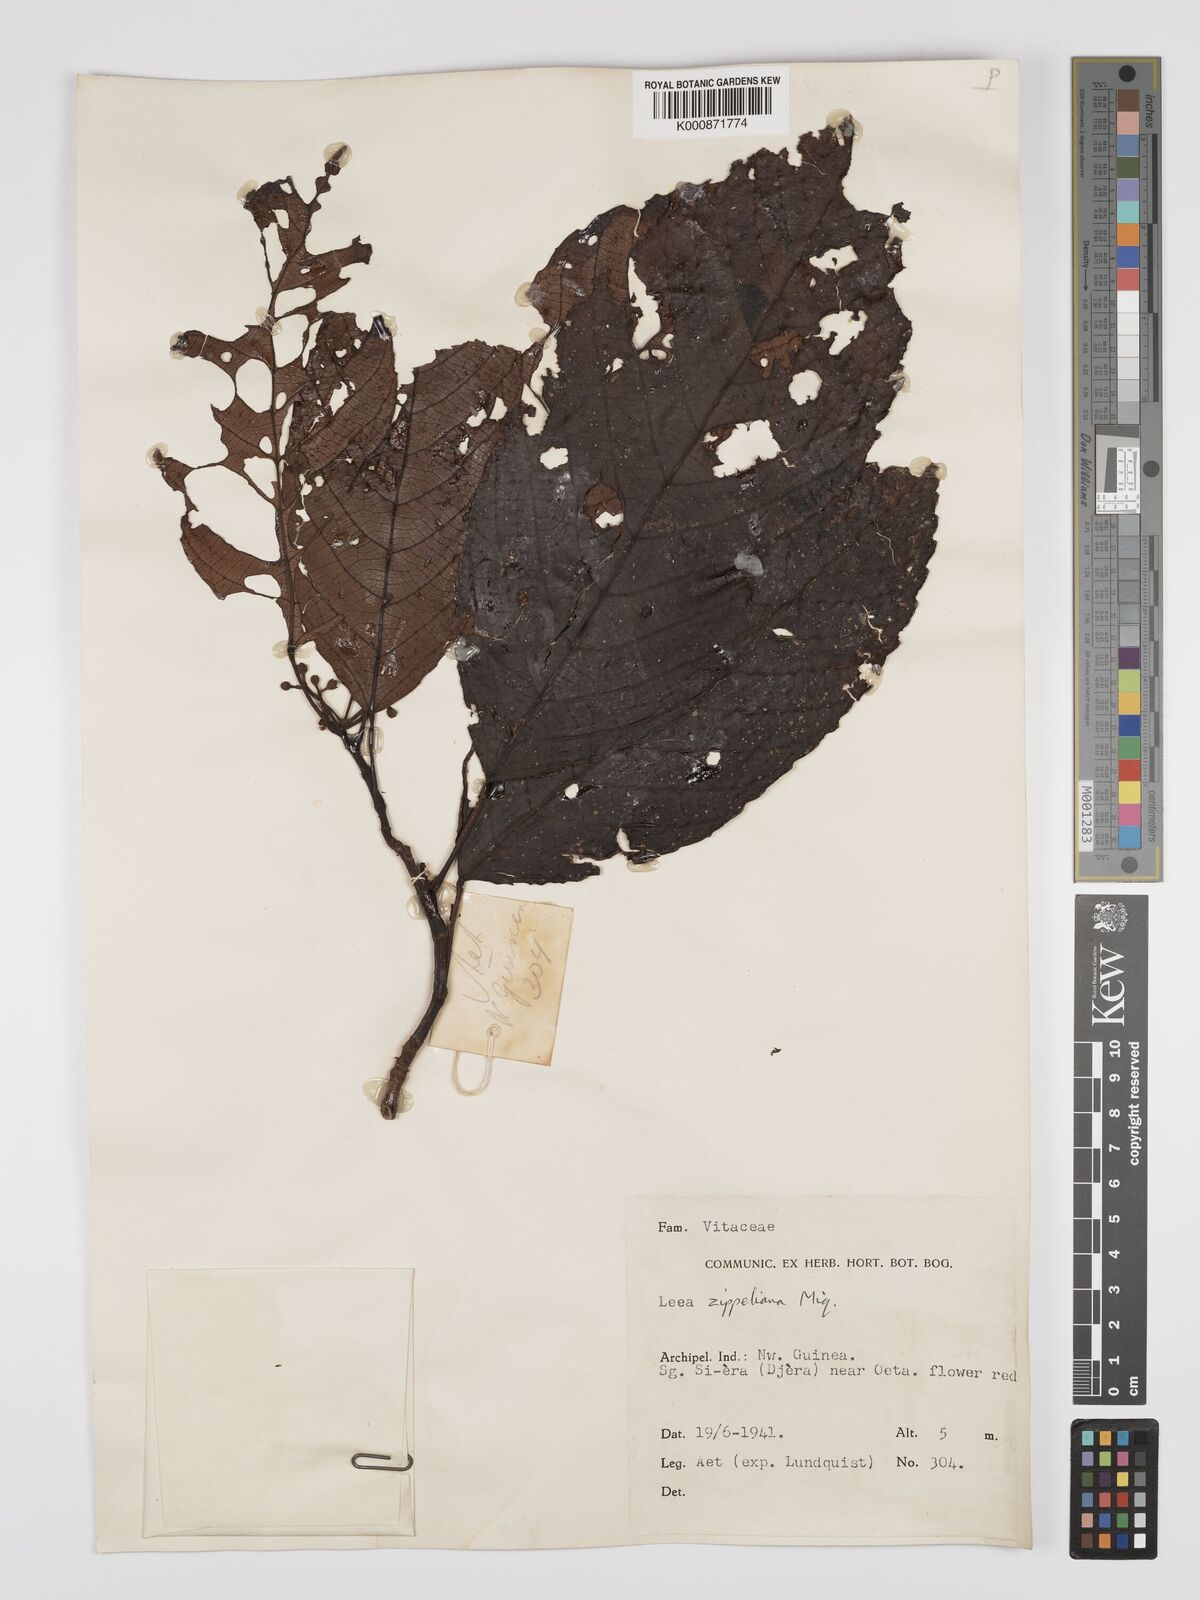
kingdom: Plantae
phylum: Tracheophyta
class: Magnoliopsida
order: Vitales
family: Vitaceae
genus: Leea
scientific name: Leea zippeliana
